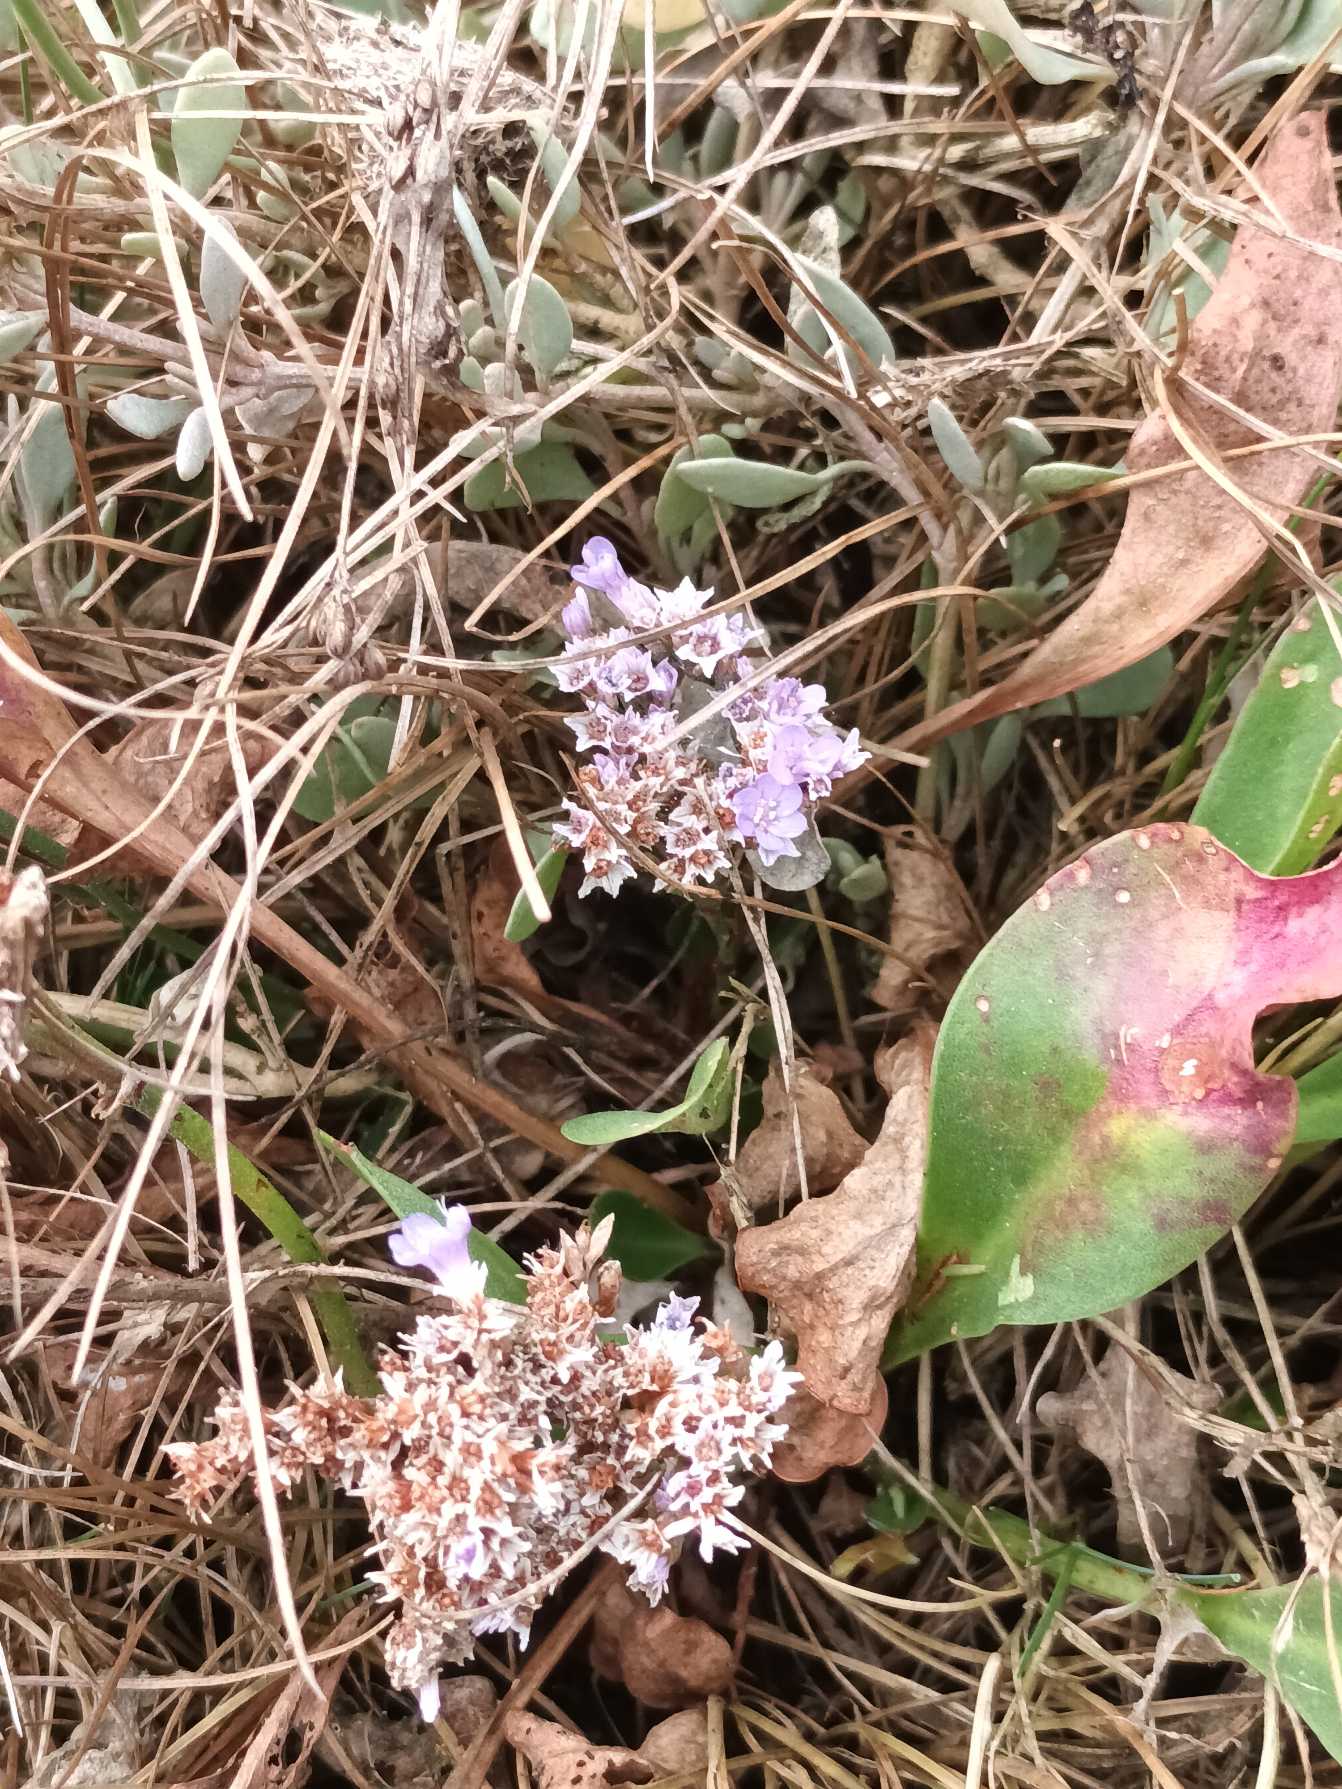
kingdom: Plantae
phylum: Tracheophyta
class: Magnoliopsida
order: Caryophyllales
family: Plumbaginaceae
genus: Limonium
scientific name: Limonium vulgare
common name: Tætblomstret hindebæger
